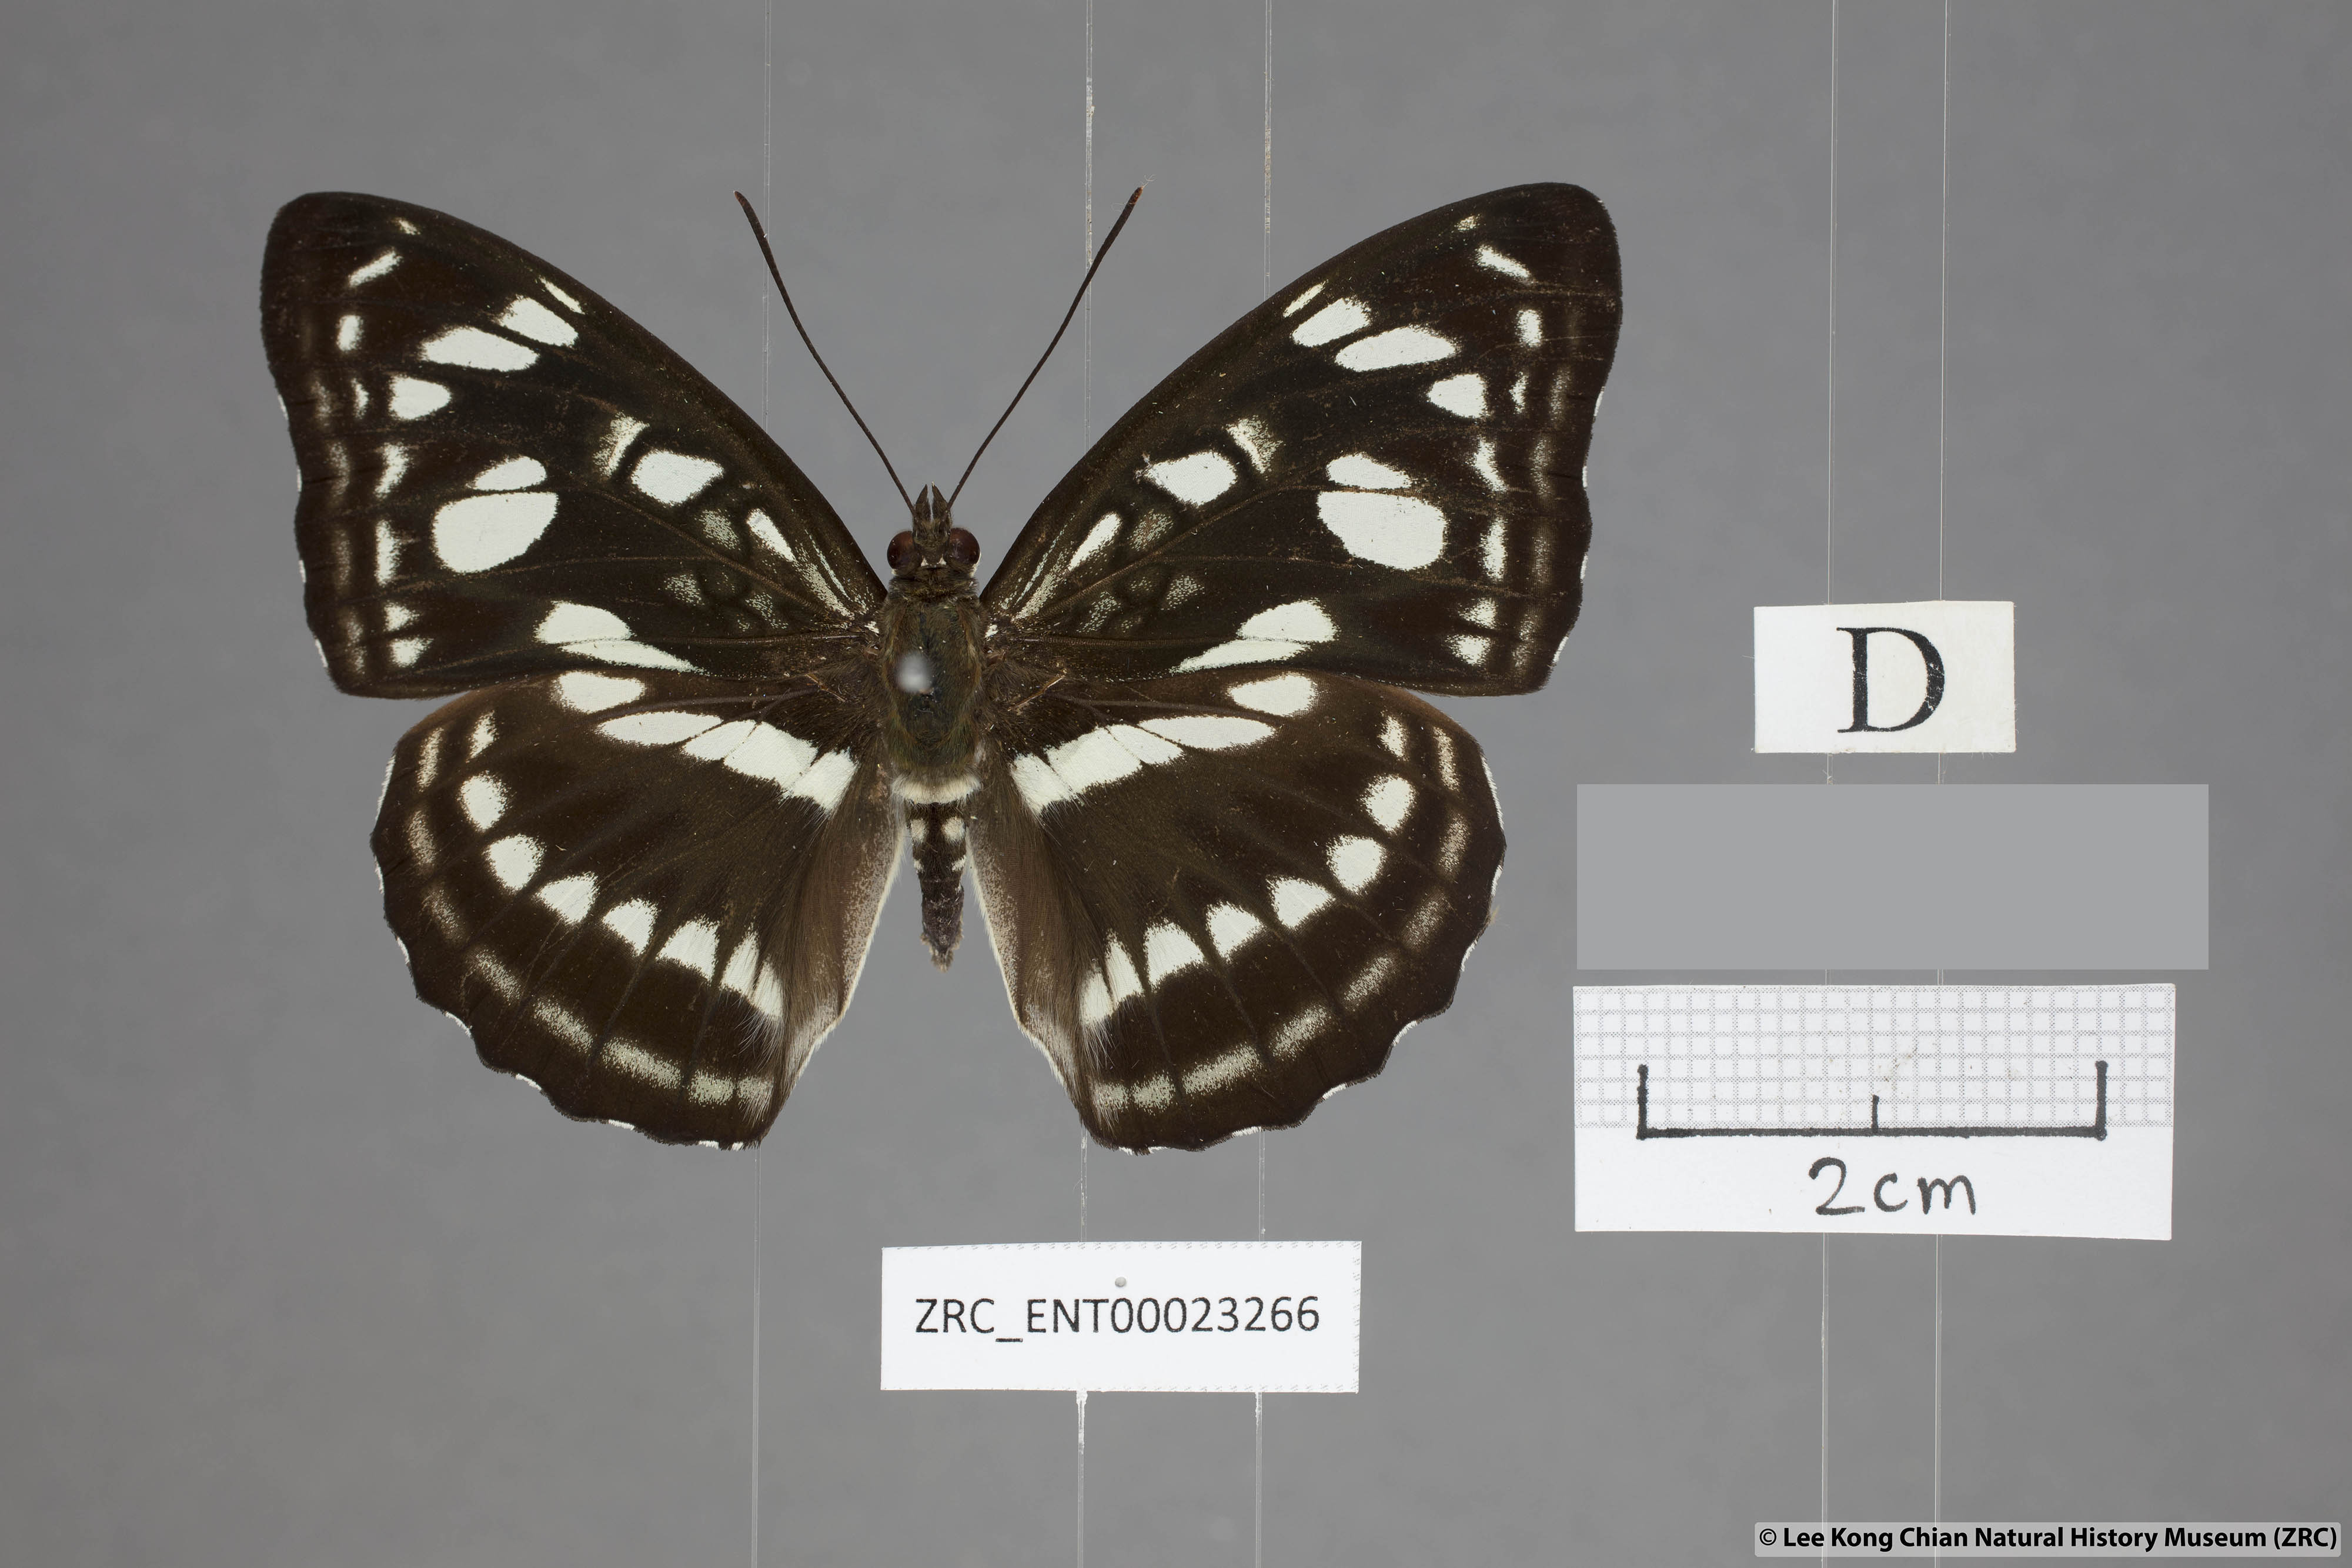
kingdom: Animalia
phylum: Arthropoda
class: Insecta
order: Lepidoptera
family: Nymphalidae
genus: Parathyma
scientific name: Parathyma ranga
